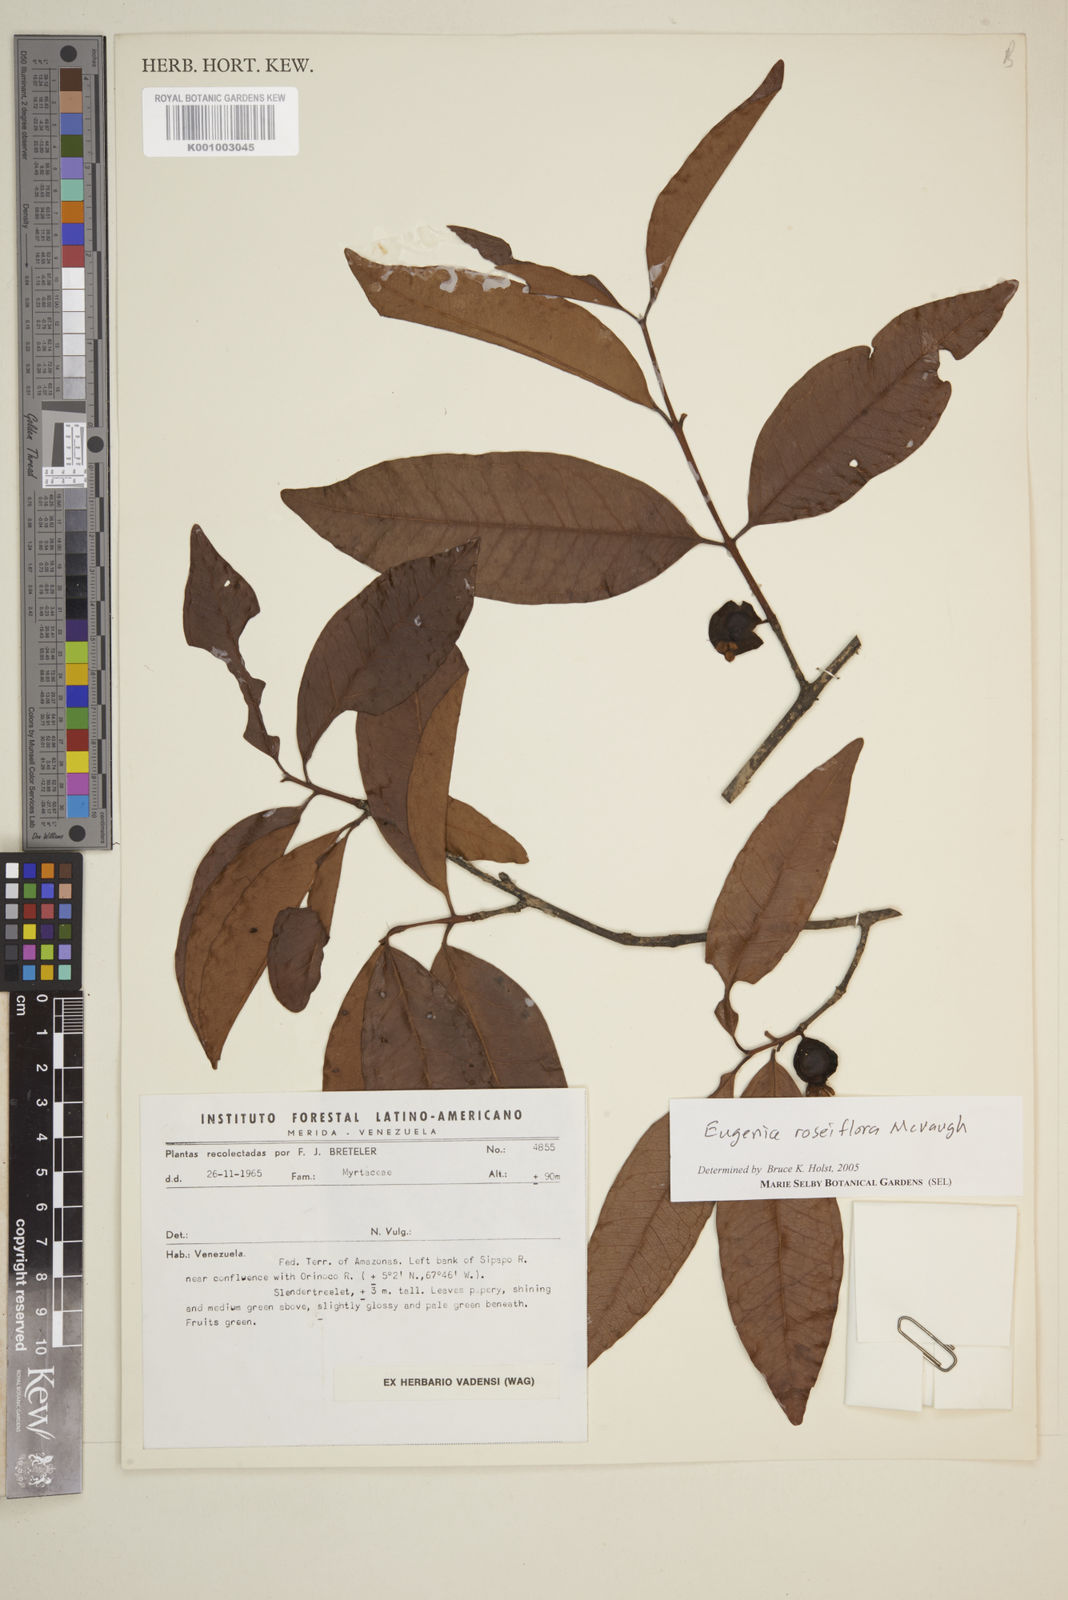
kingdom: Plantae
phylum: Tracheophyta
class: Magnoliopsida
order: Myrtales
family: Myrtaceae
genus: Eugenia
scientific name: Eugenia roseiflora
